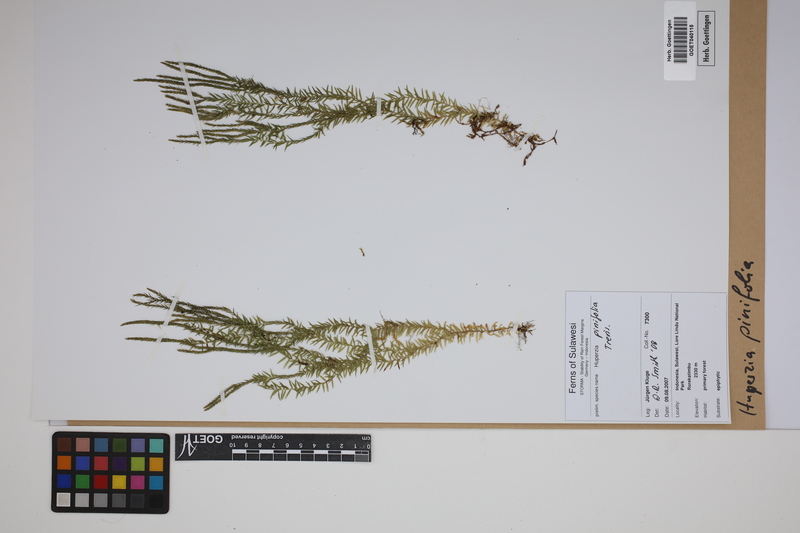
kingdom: Plantae
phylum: Tracheophyta
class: Lycopodiopsida
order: Lycopodiales
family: Lycopodiaceae
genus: Phlegmariurus
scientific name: Phlegmariurus pinifolius
